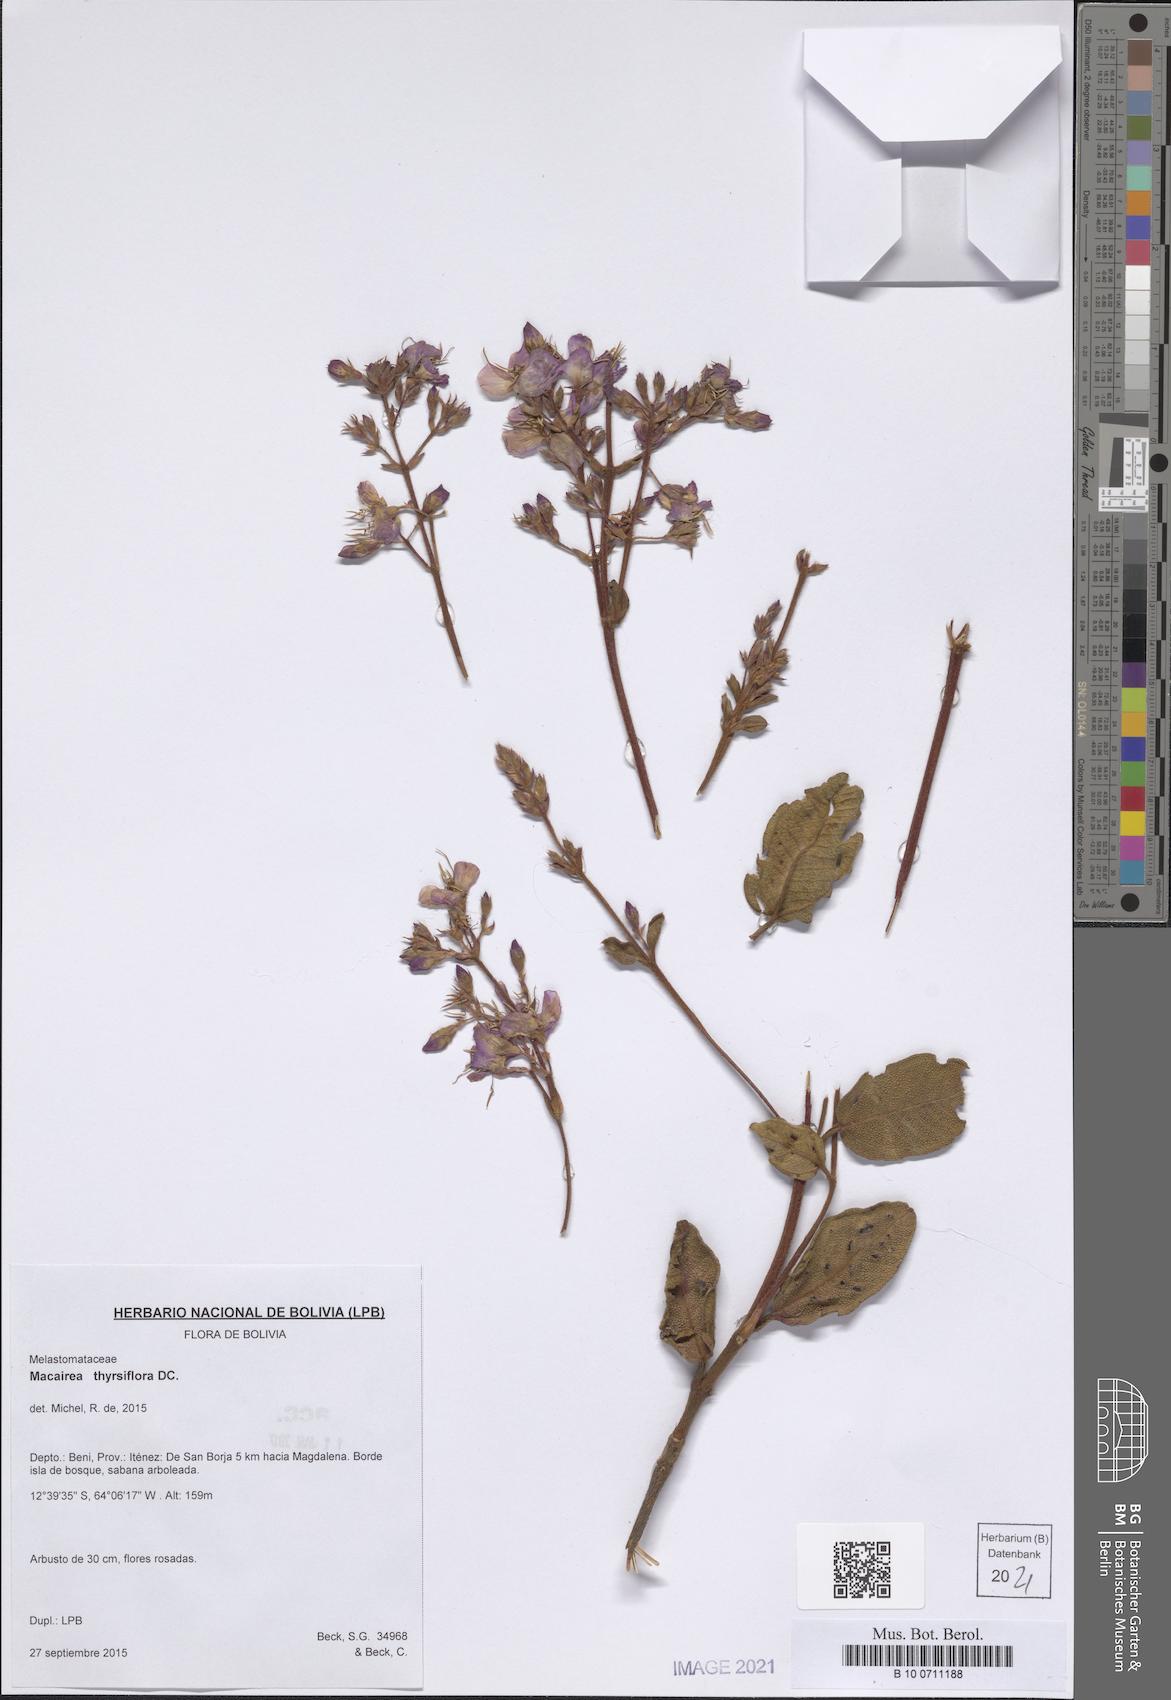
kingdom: Plantae
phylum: Tracheophyta
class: Magnoliopsida
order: Myrtales
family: Melastomataceae
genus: Macairea
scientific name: Macairea thyrsiflora
